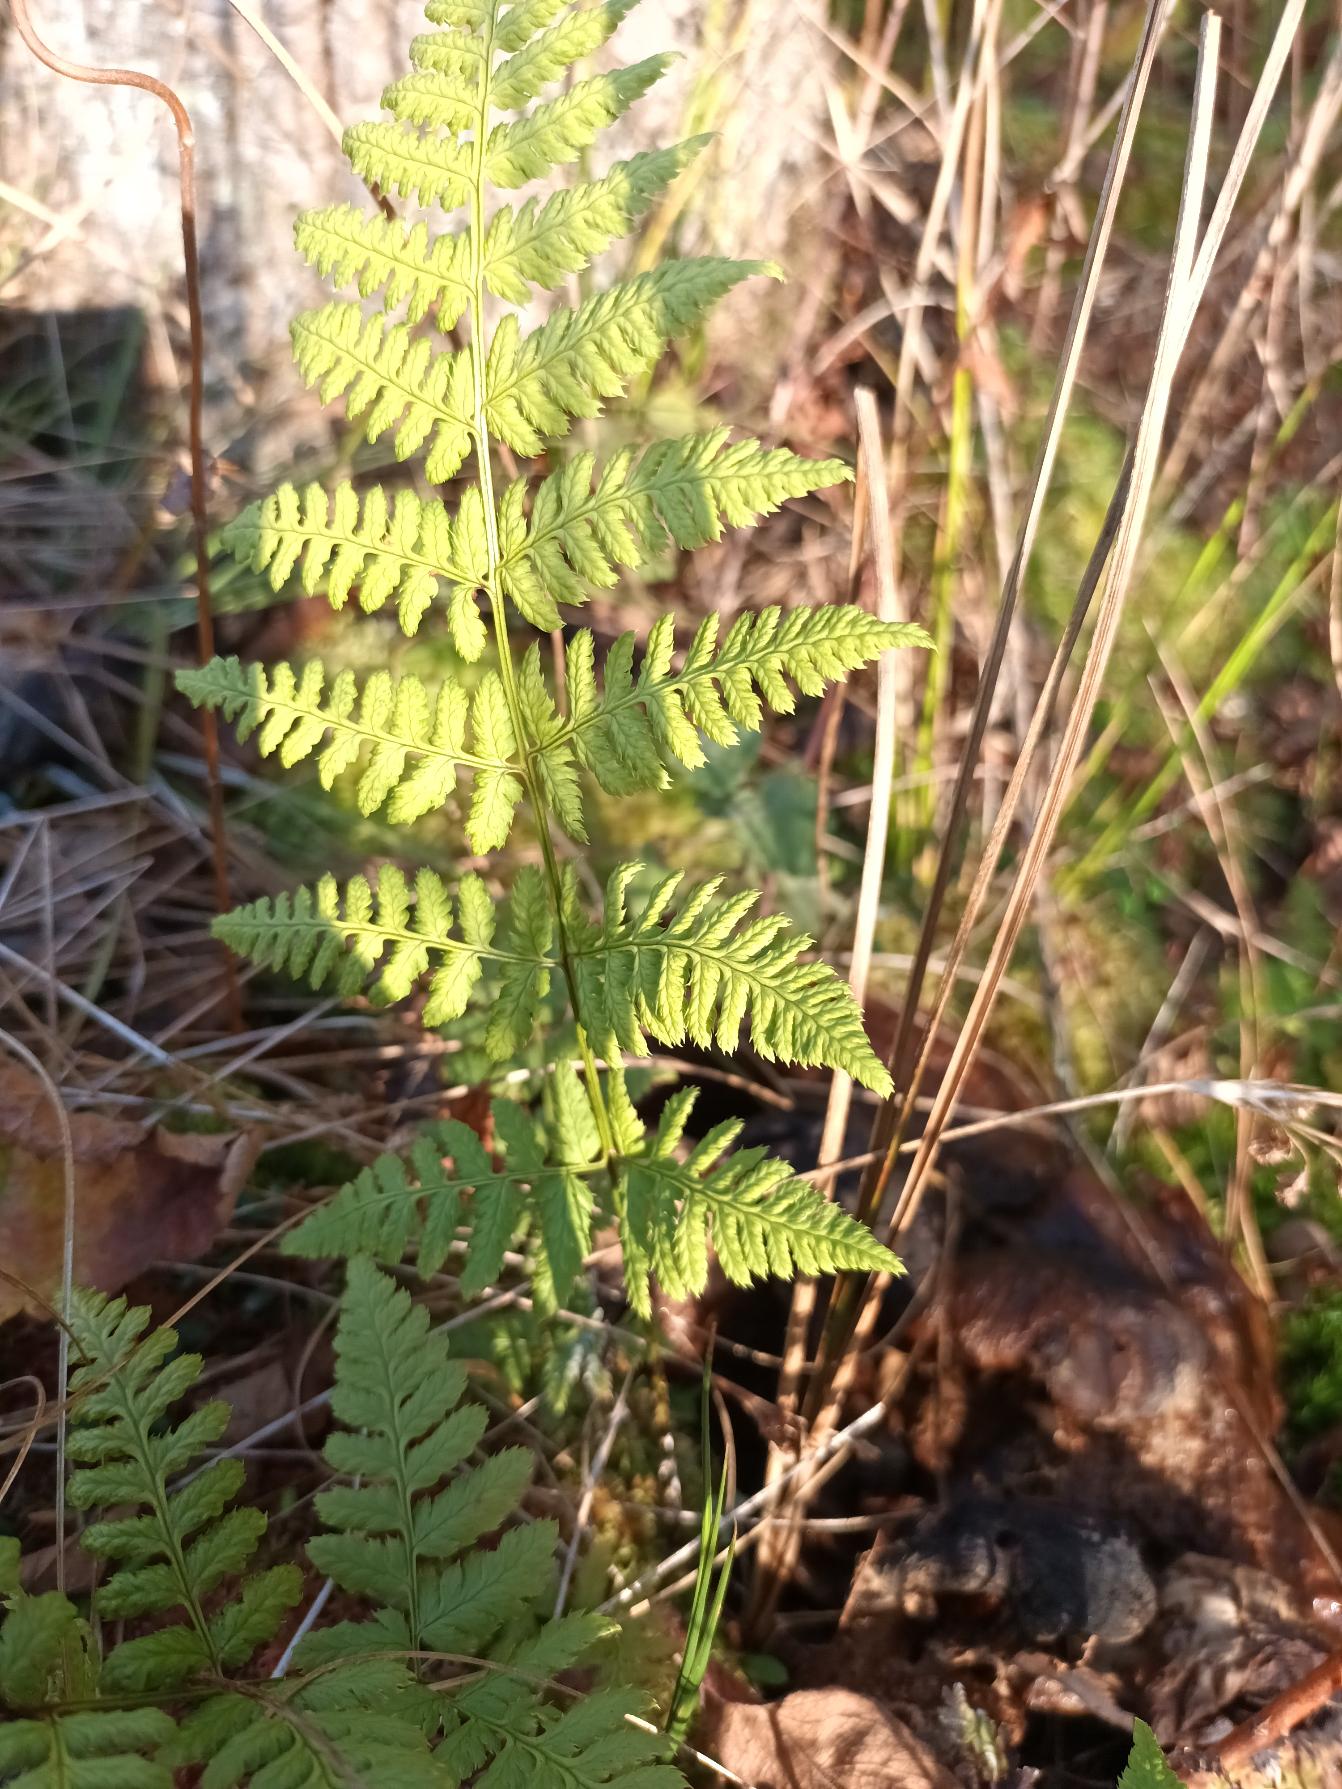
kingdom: Plantae
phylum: Tracheophyta
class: Polypodiopsida
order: Polypodiales
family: Dryopteridaceae
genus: Dryopteris
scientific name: Dryopteris carthusiana
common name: Smalbladet mangeløv
